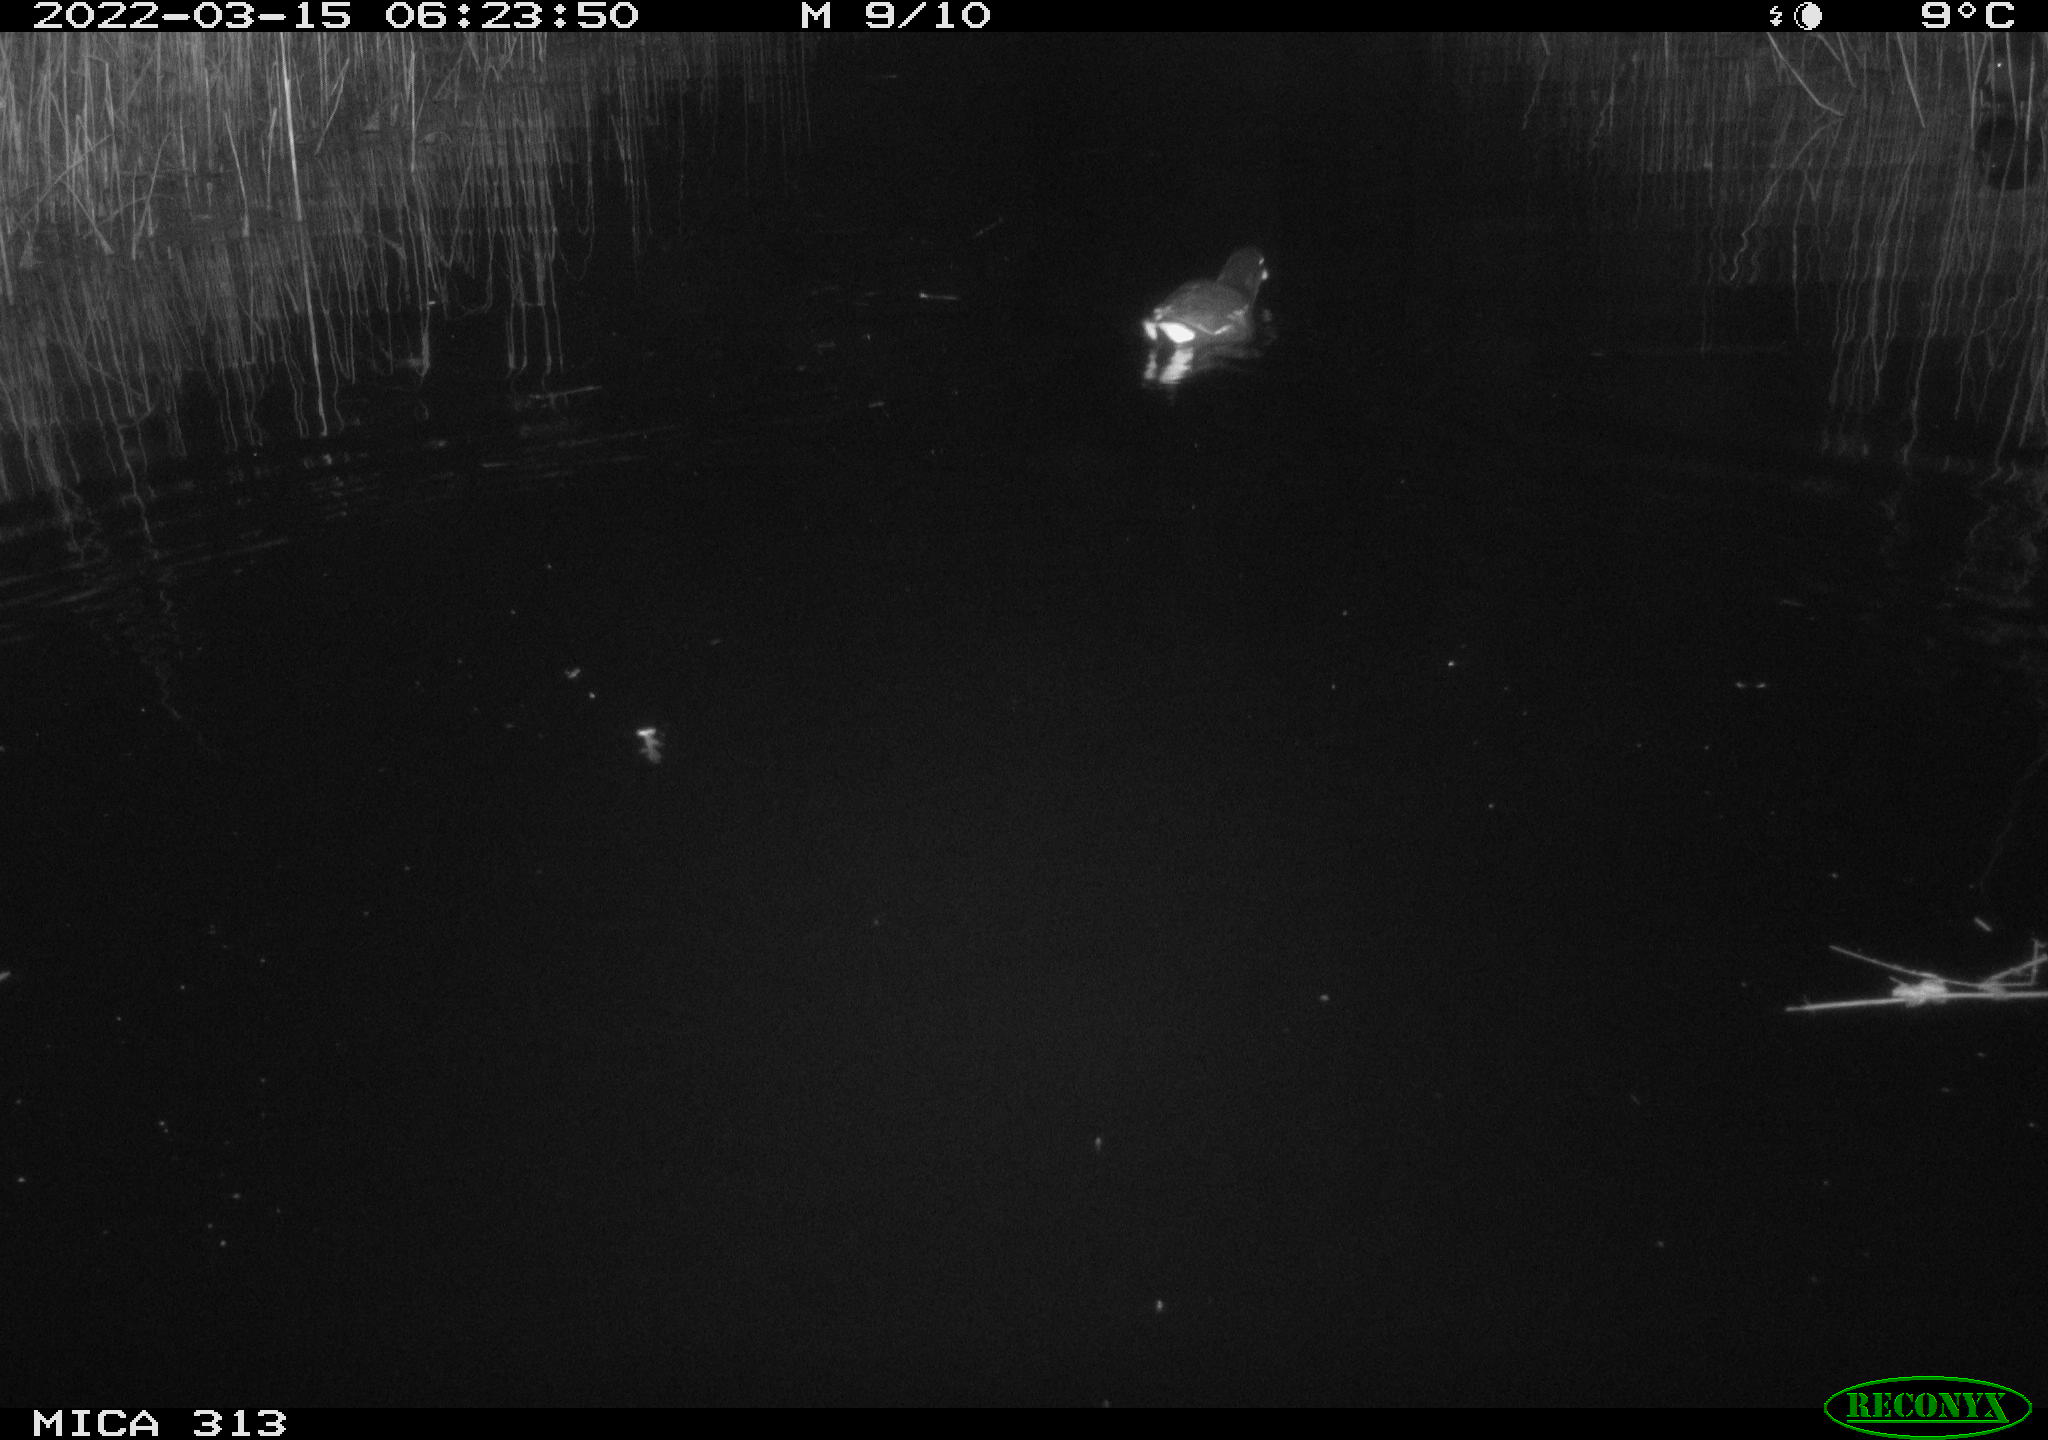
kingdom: Animalia
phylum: Chordata
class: Aves
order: Gruiformes
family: Rallidae
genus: Gallinula
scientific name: Gallinula chloropus
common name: Common moorhen
